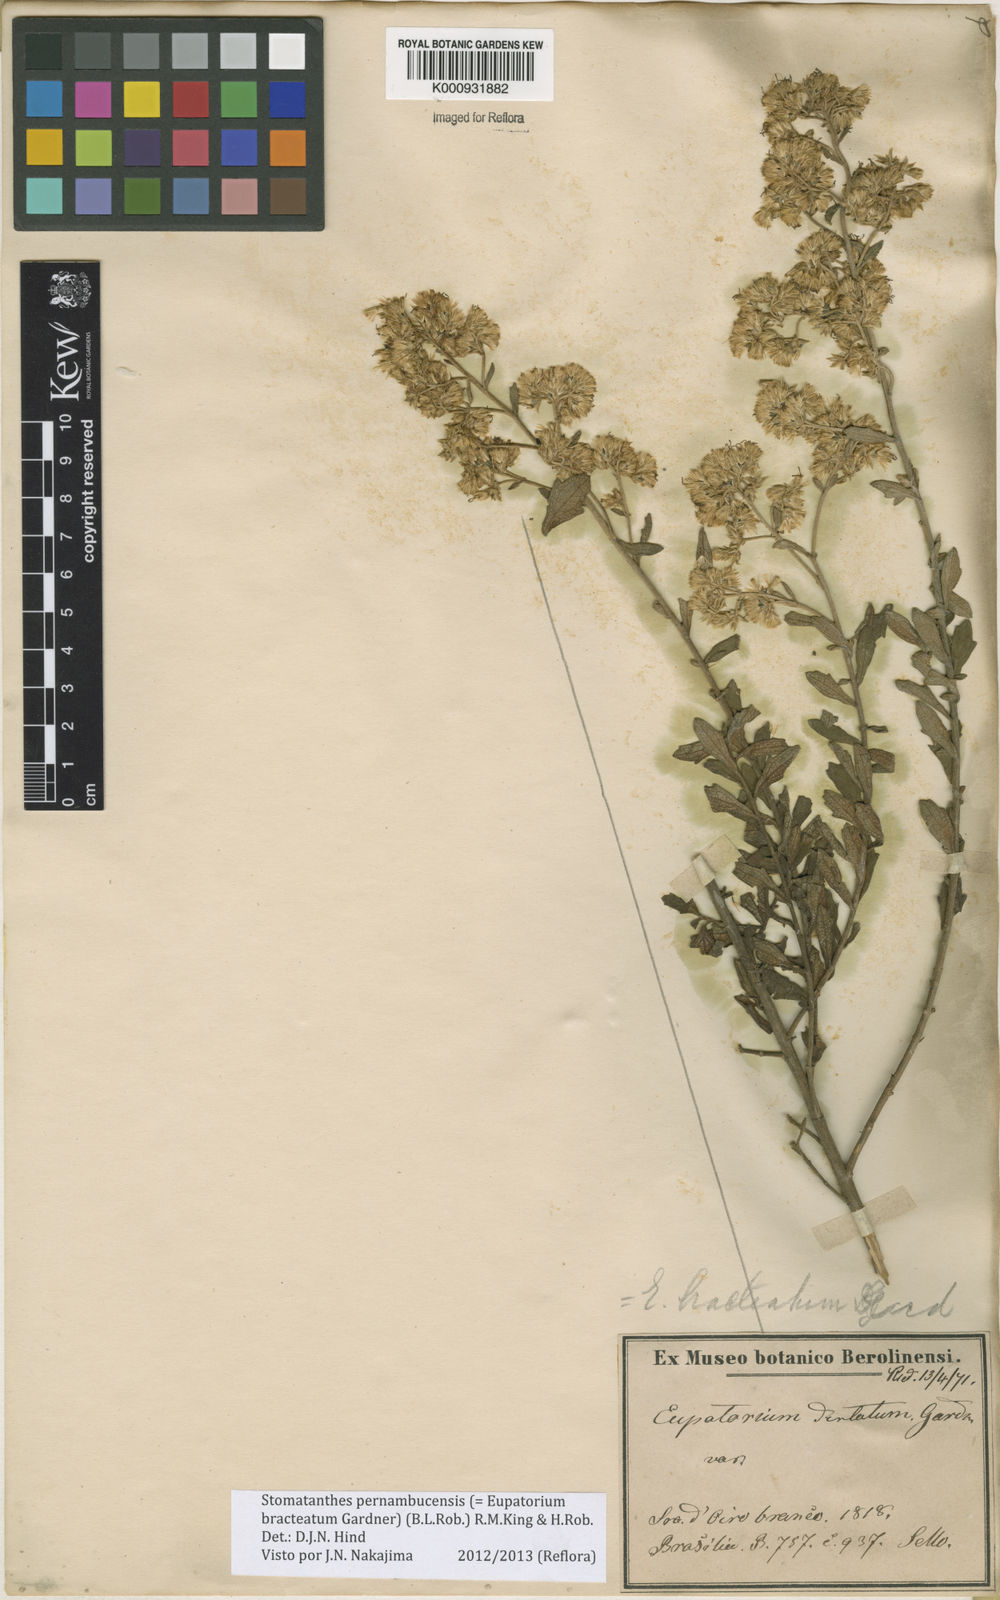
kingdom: Plantae
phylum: Tracheophyta
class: Magnoliopsida
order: Asterales
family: Asteraceae
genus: Stomatanthes
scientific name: Stomatanthes pernambucensis
